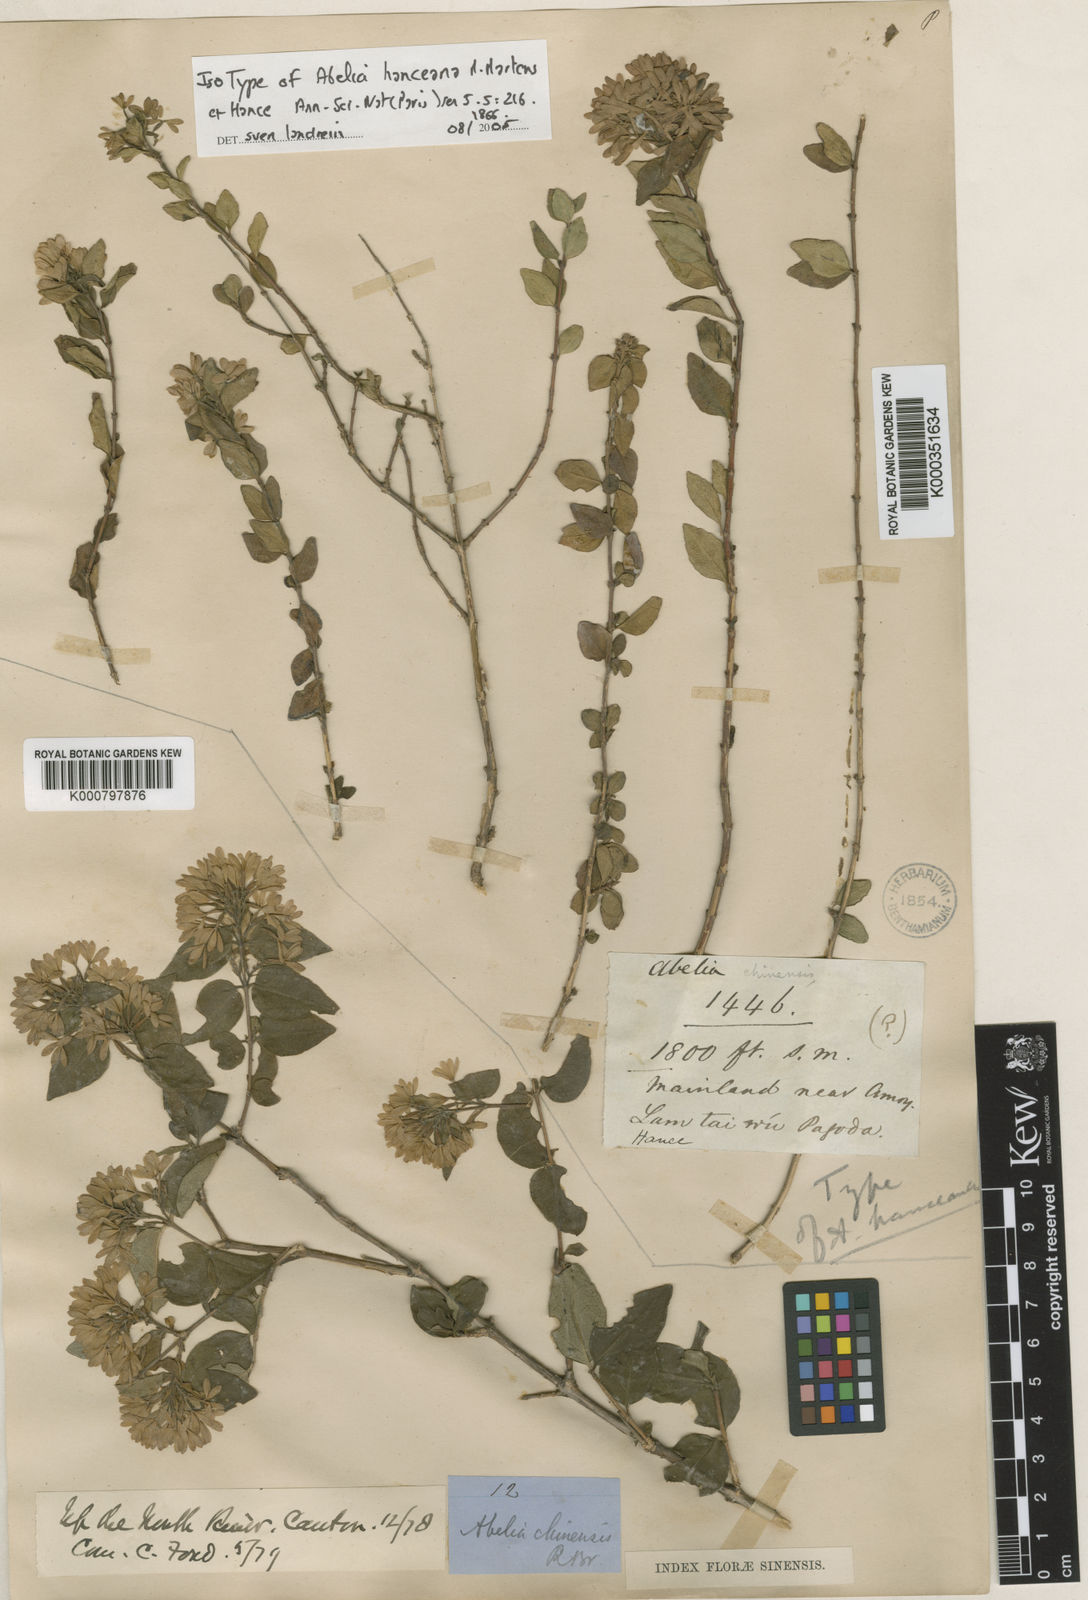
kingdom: Plantae
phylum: Tracheophyta
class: Magnoliopsida
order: Dipsacales
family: Caprifoliaceae
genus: Abelia
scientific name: Abelia chinensis
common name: Chinese abelia
